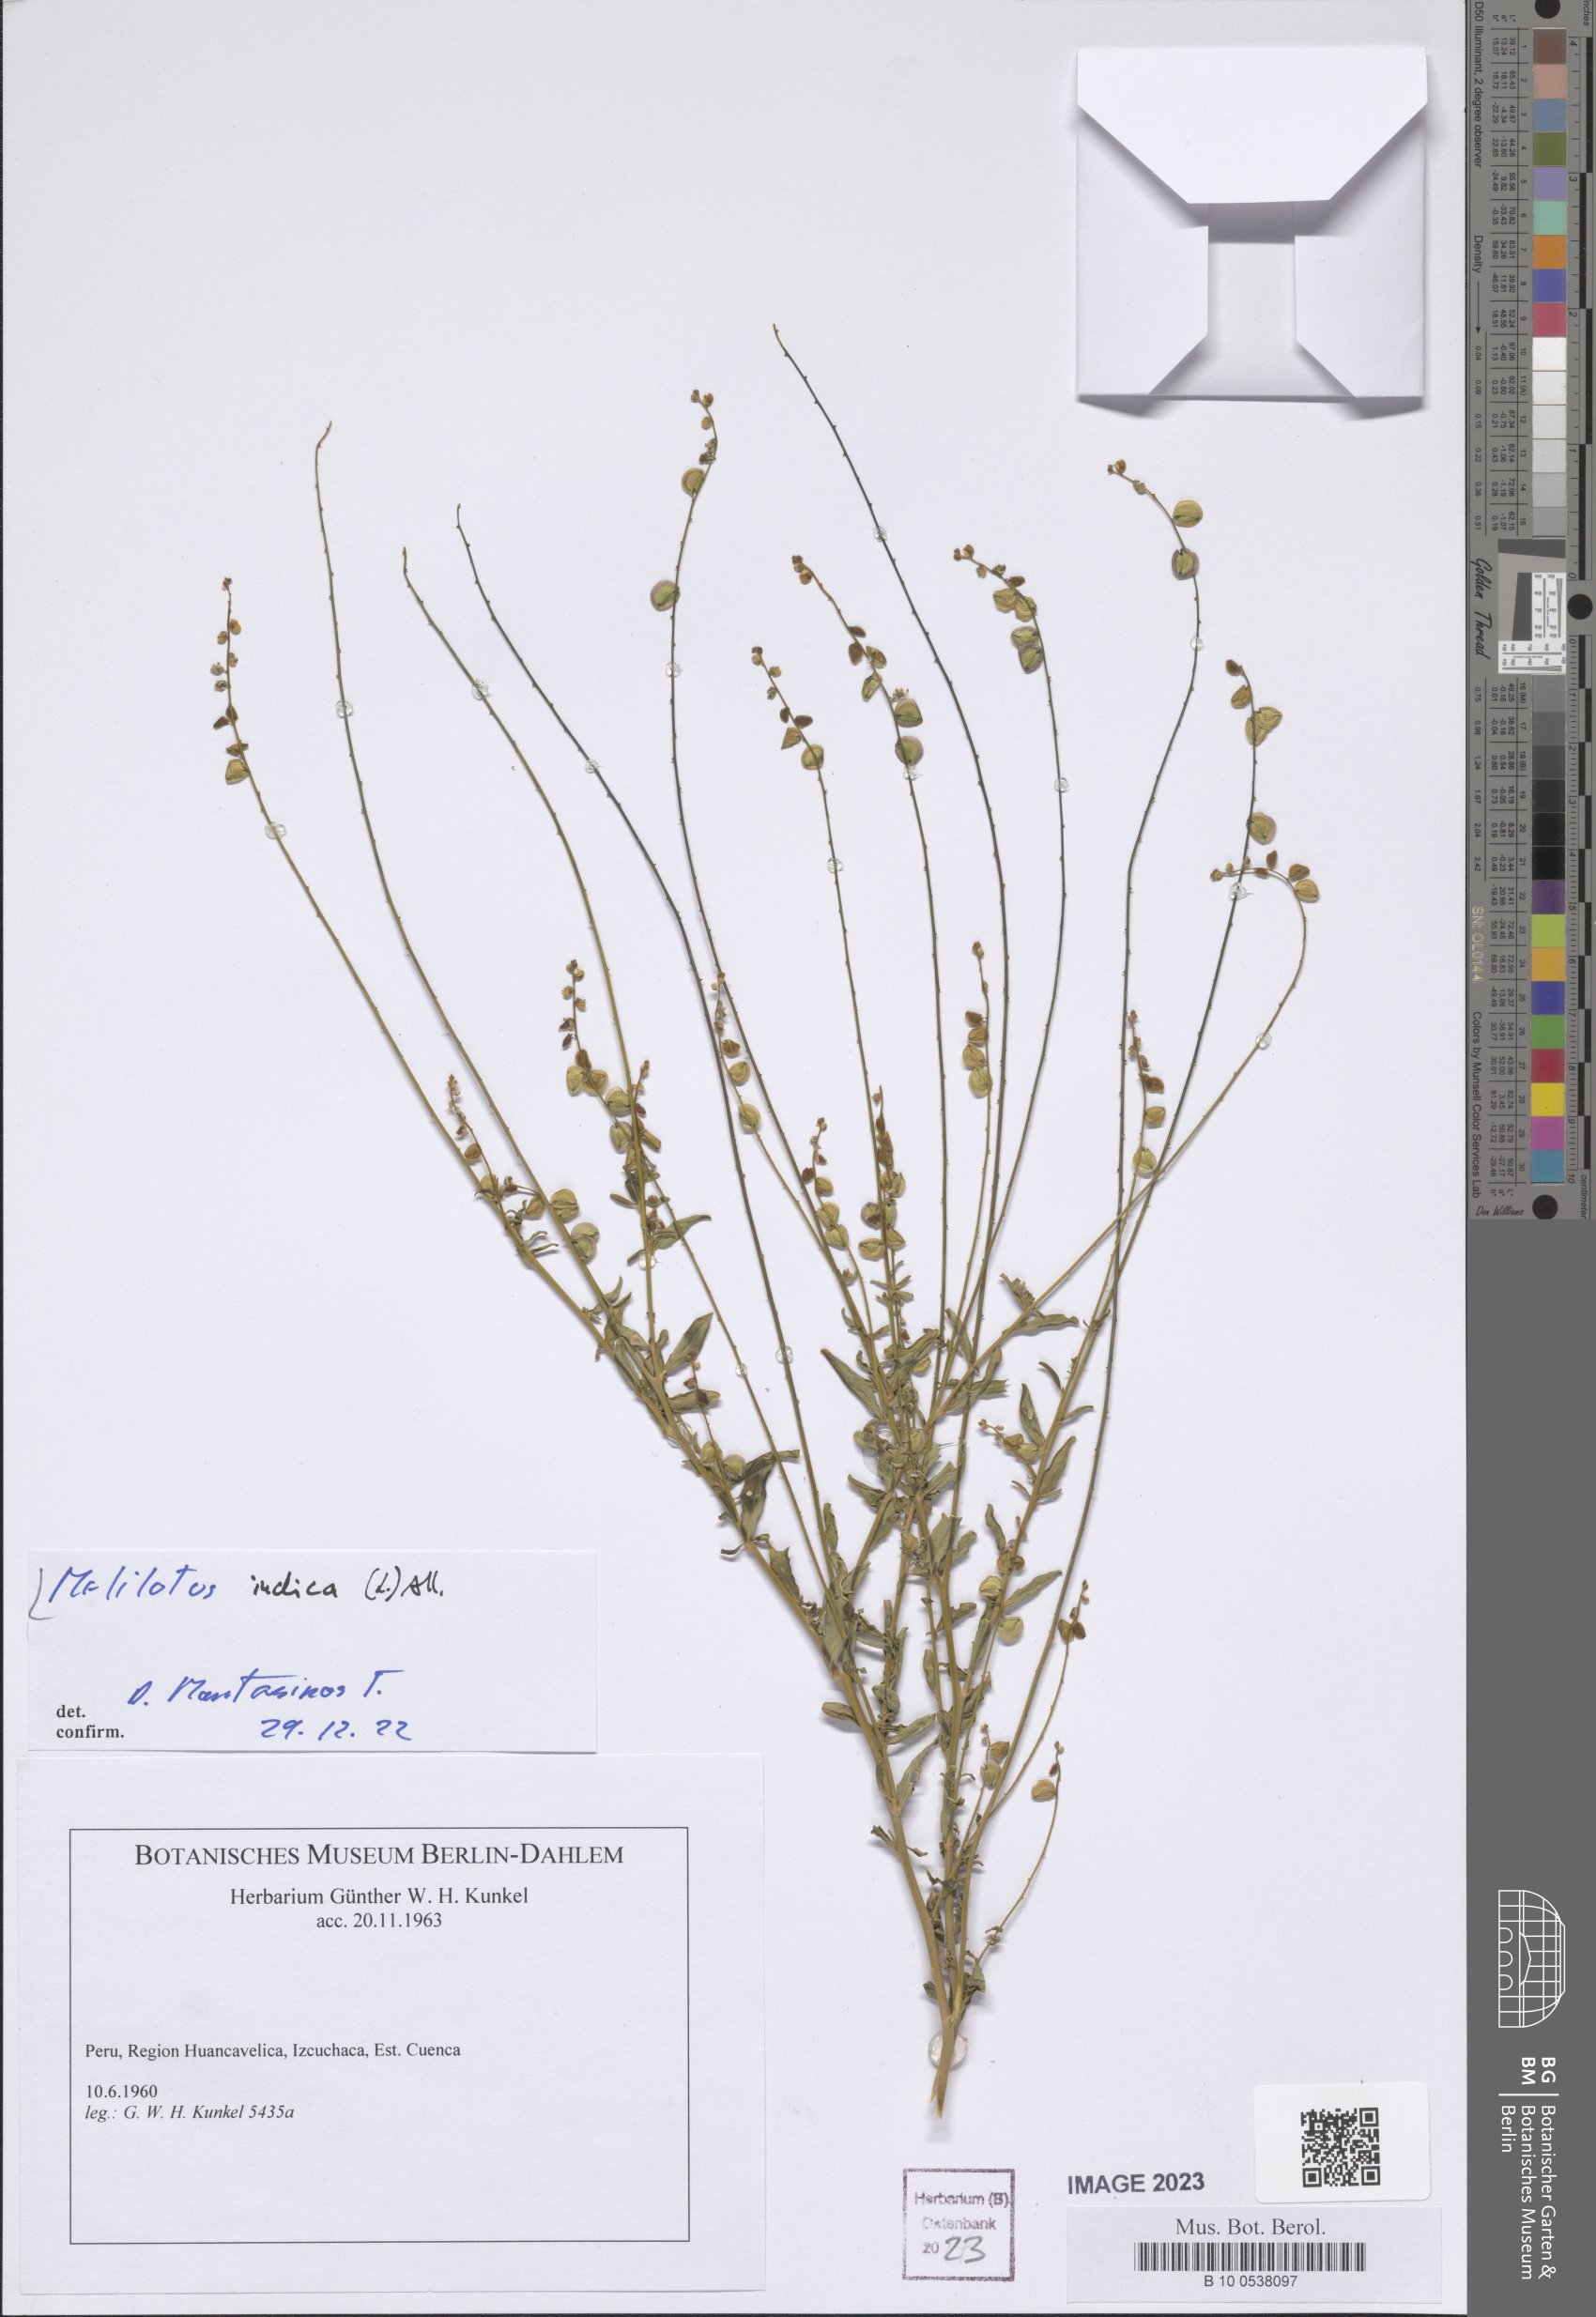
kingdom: Plantae
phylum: Tracheophyta
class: Magnoliopsida
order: Fabales
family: Fabaceae
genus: Melilotus
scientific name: Melilotus indicus
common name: Small melilot
